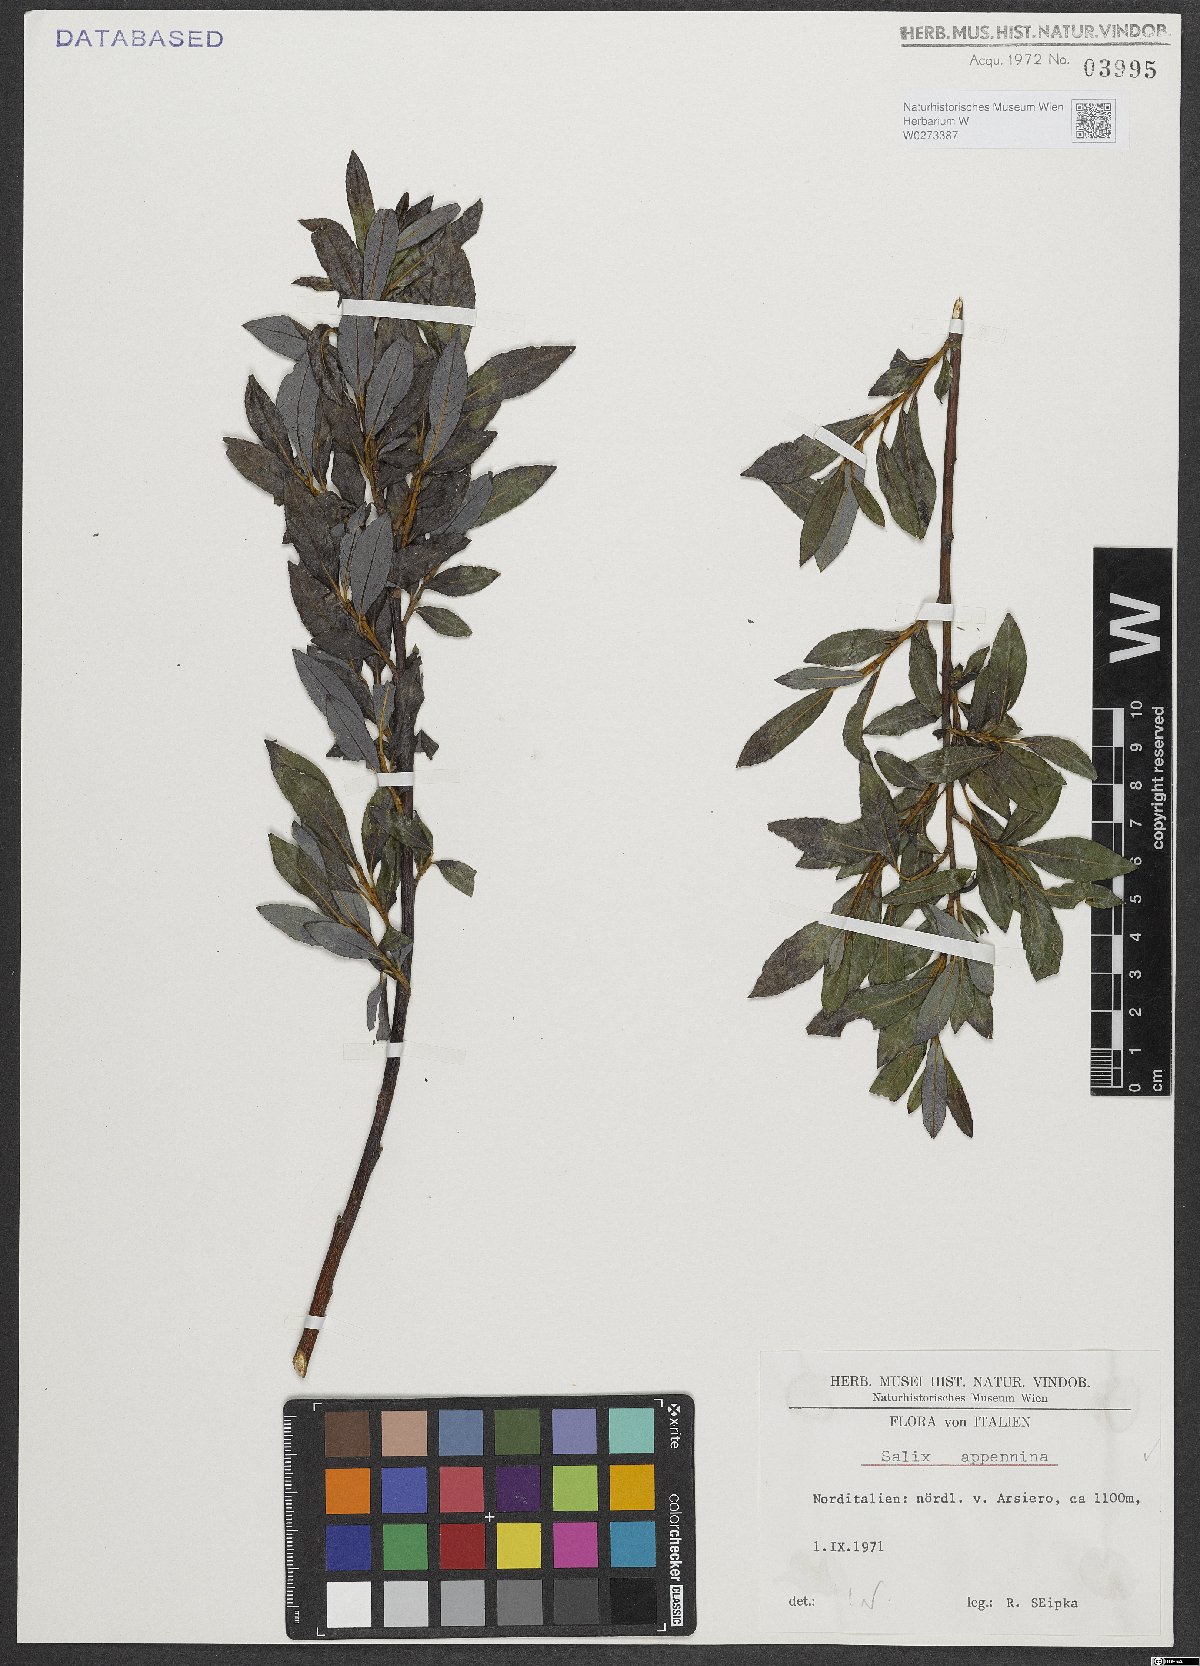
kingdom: Plantae
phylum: Tracheophyta
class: Magnoliopsida
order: Malpighiales
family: Salicaceae
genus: Salix
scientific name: Salix apennina
